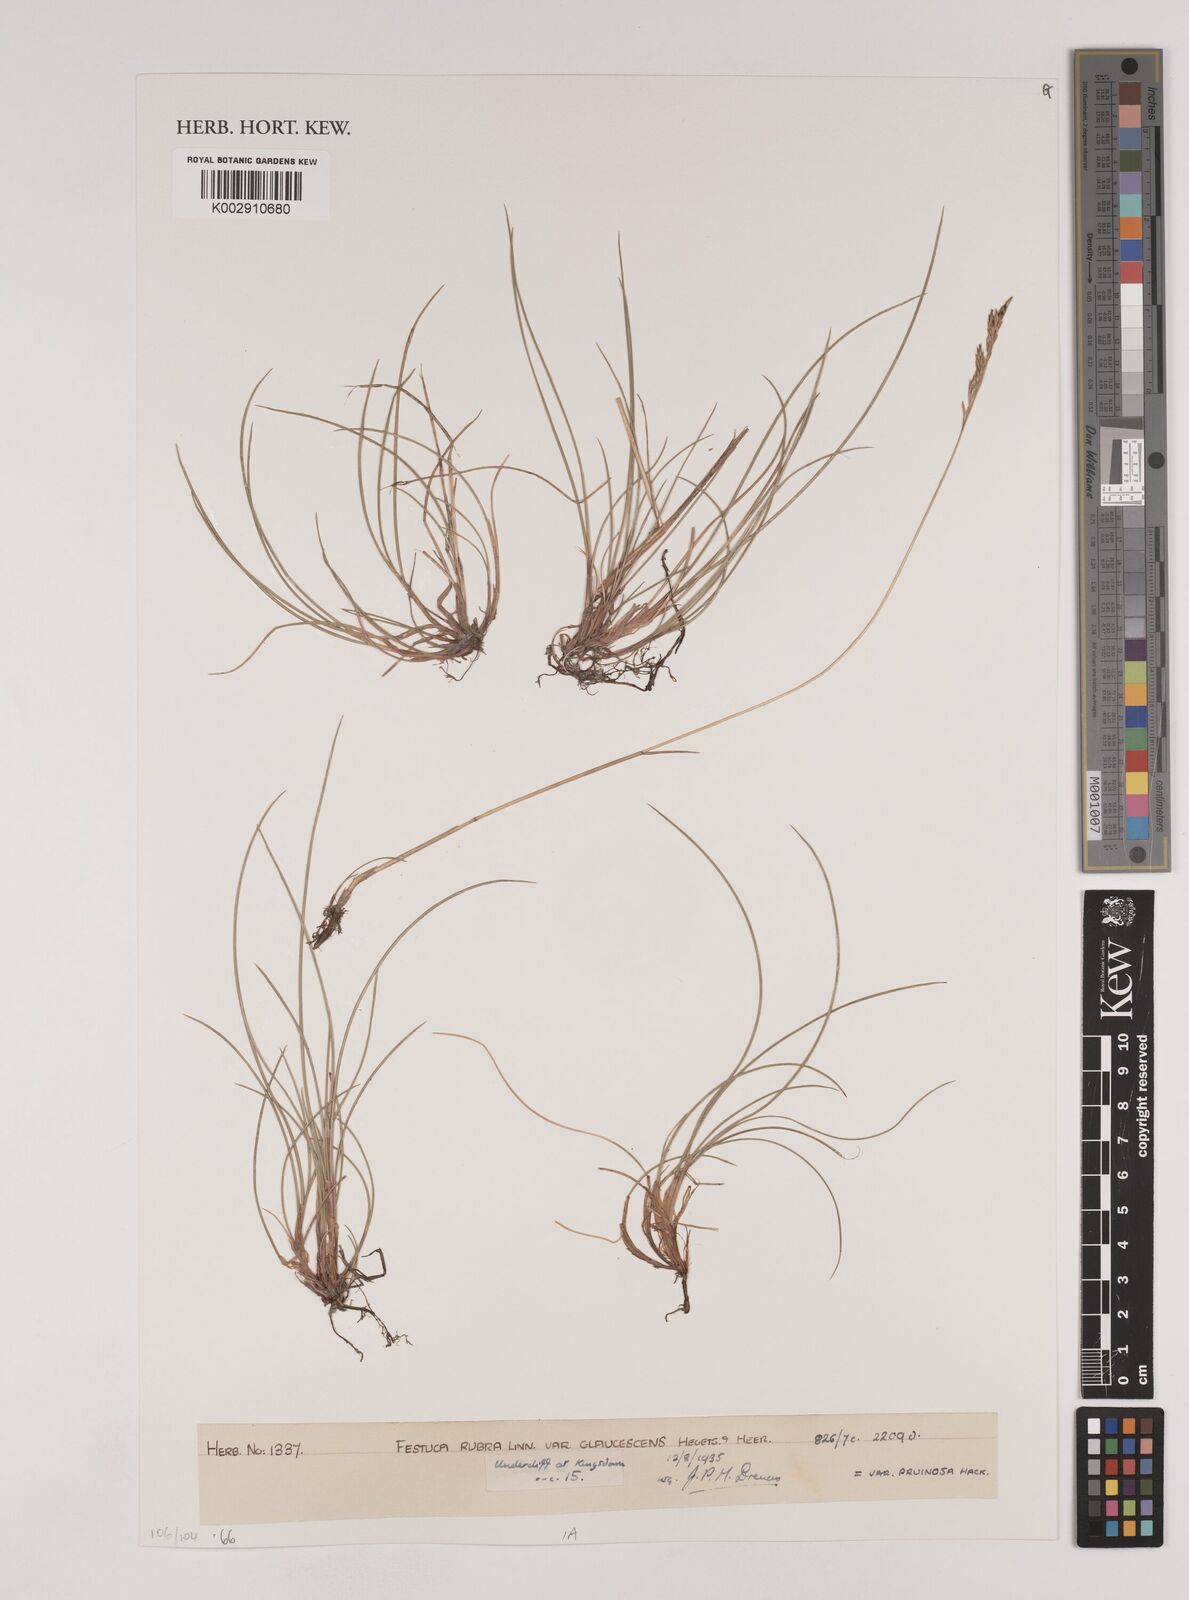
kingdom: Plantae
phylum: Tracheophyta
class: Liliopsida
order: Poales
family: Poaceae
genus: Festuca
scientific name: Festuca rubra
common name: Red fescue
